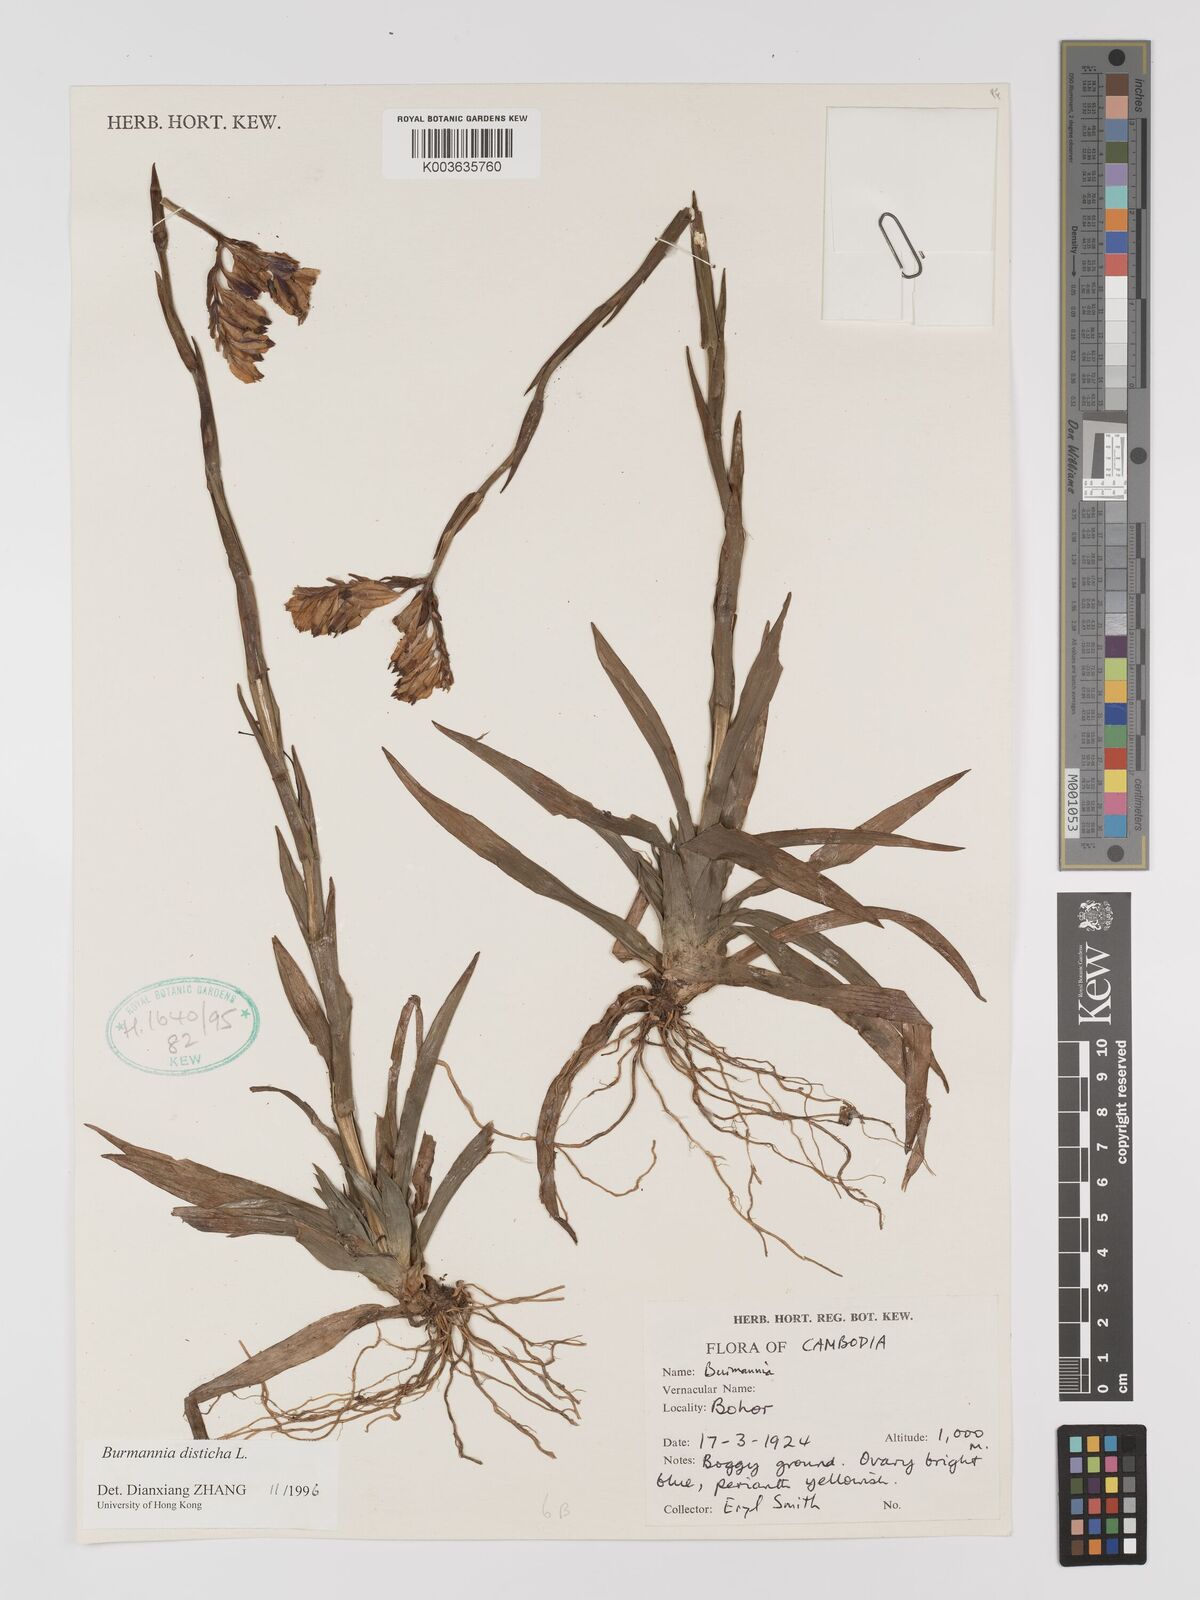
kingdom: Plantae
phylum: Tracheophyta
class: Liliopsida
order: Dioscoreales
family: Burmanniaceae
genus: Burmannia
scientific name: Burmannia disticha
